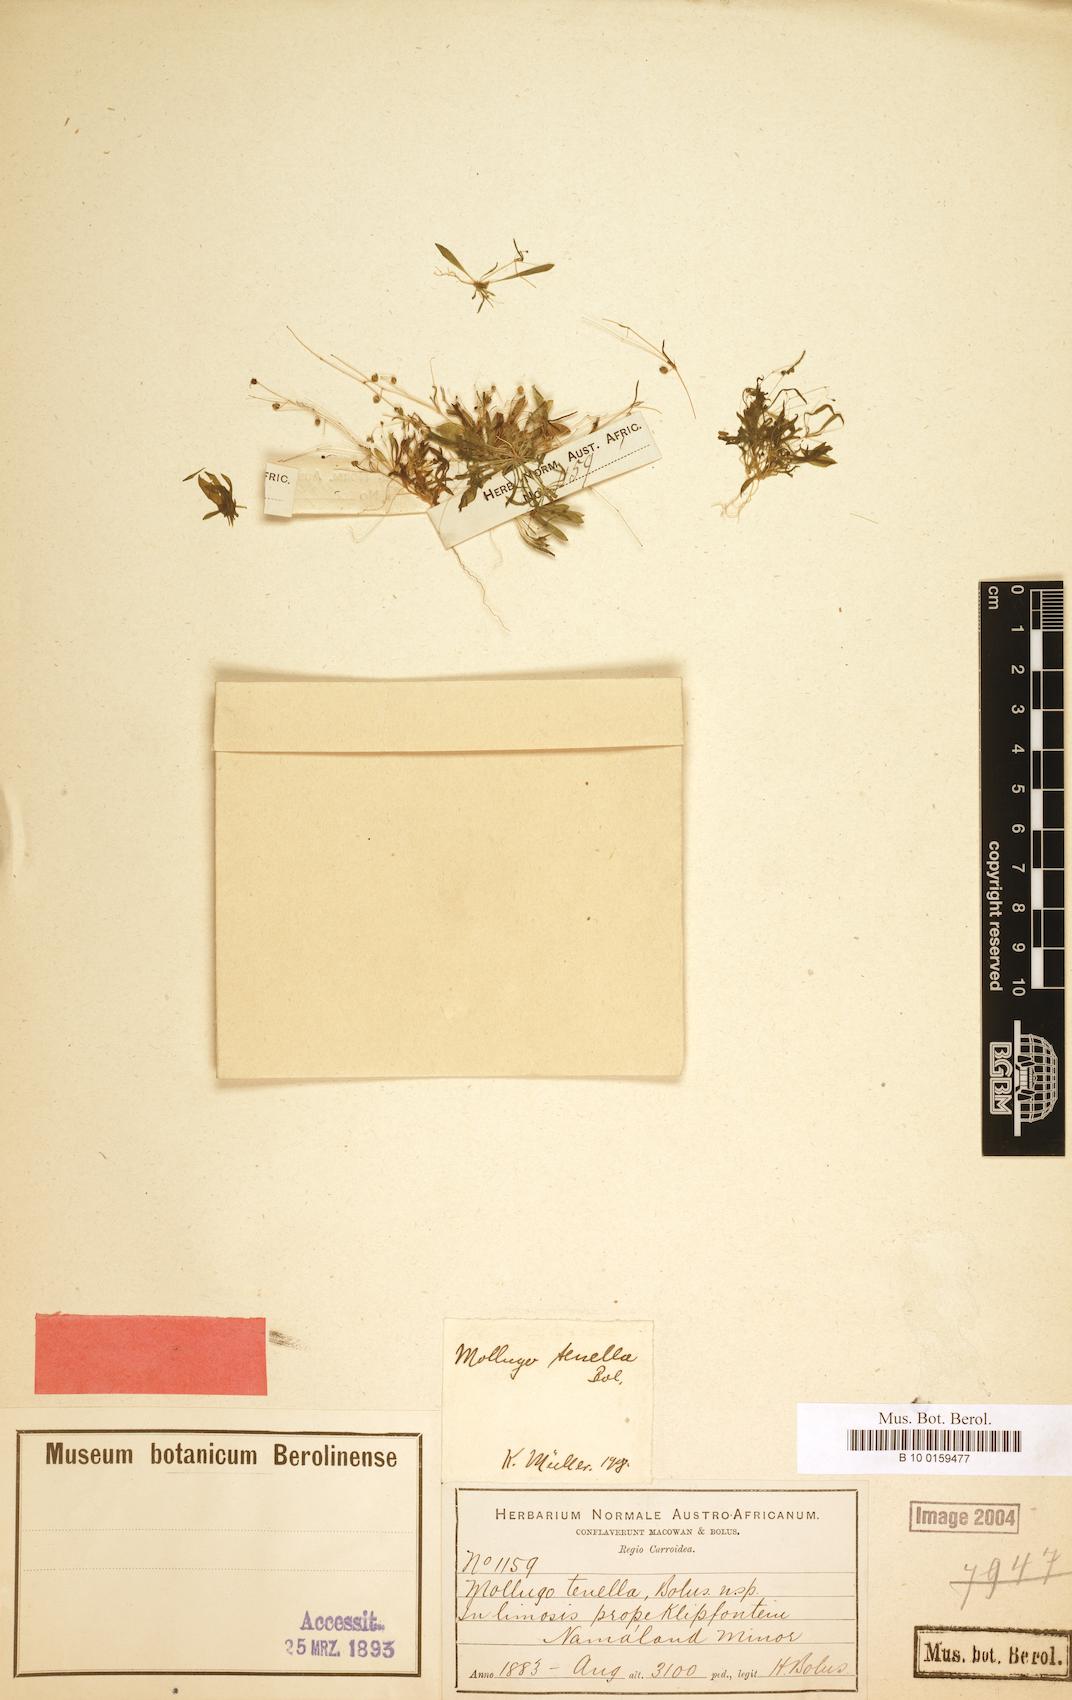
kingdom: Plantae
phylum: Tracheophyta
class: Magnoliopsida
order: Caryophyllales
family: Molluginaceae
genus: Pharnaceum
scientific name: Pharnaceum subtile
